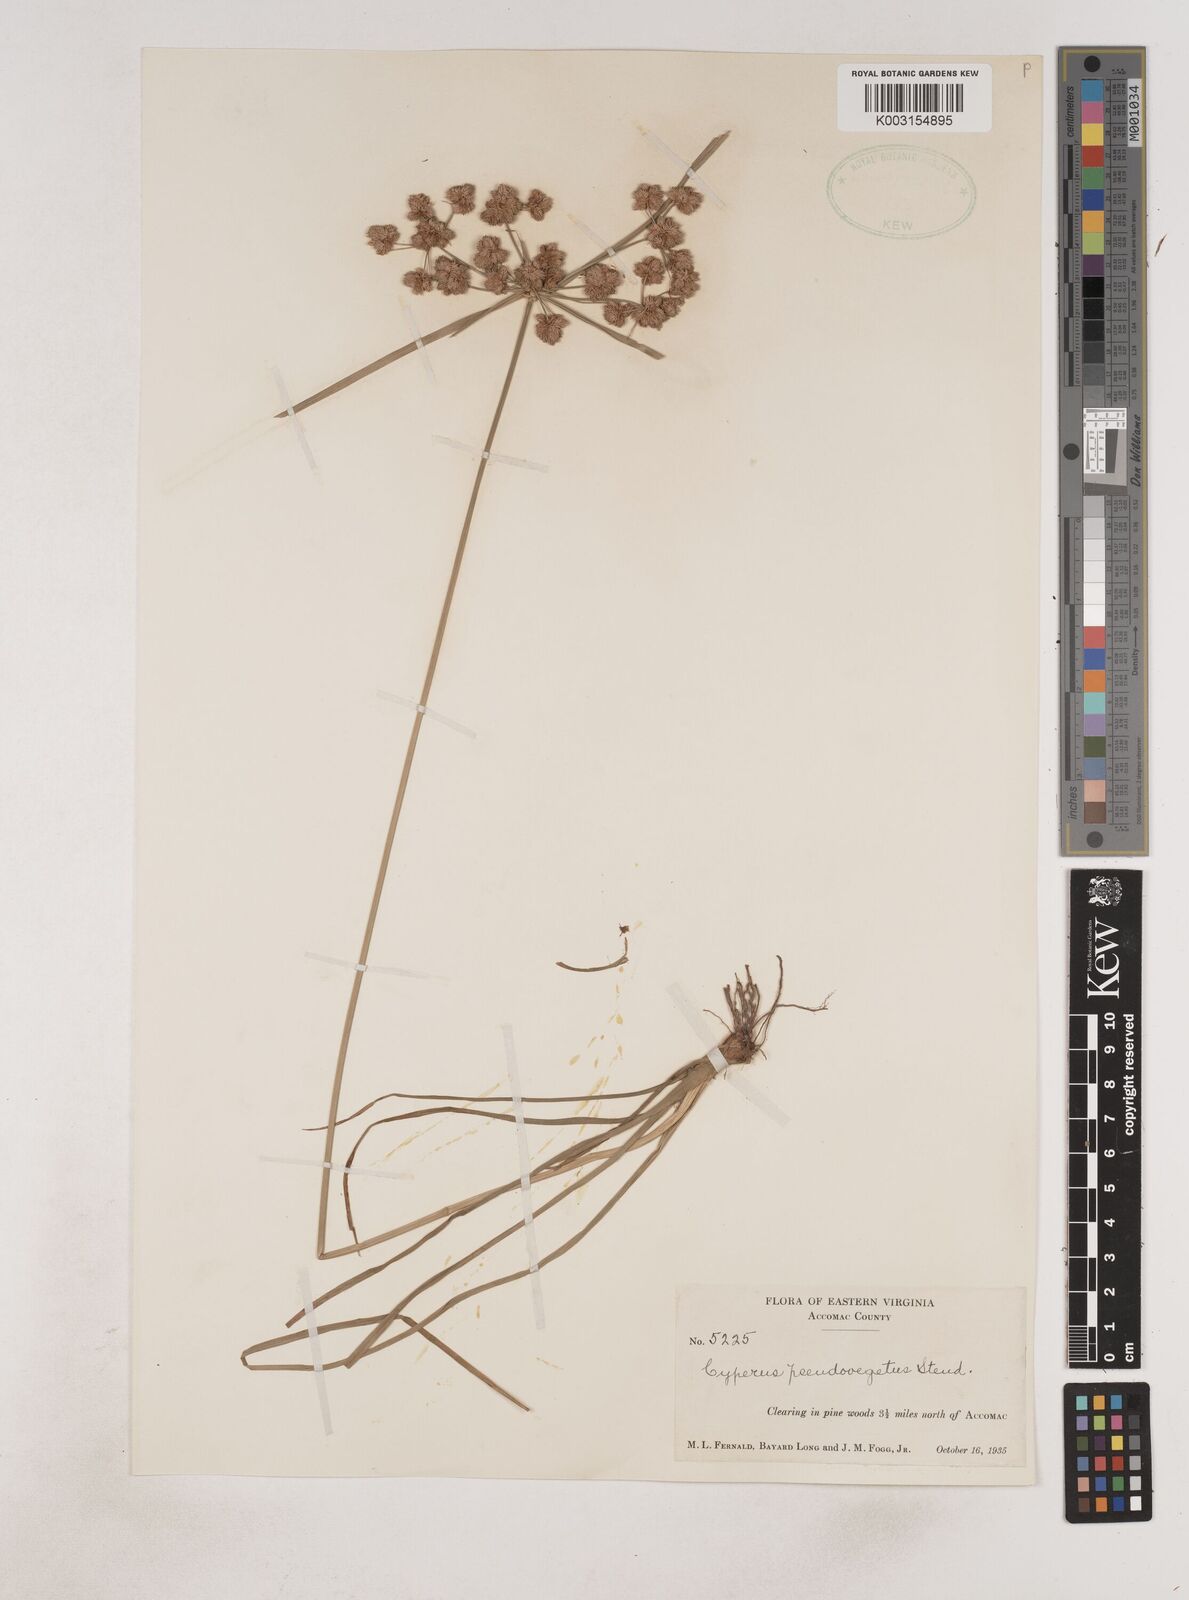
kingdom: Plantae
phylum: Tracheophyta
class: Liliopsida
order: Poales
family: Cyperaceae
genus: Cyperus
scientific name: Cyperus pseudovegetus
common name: Marsh flat sedge
